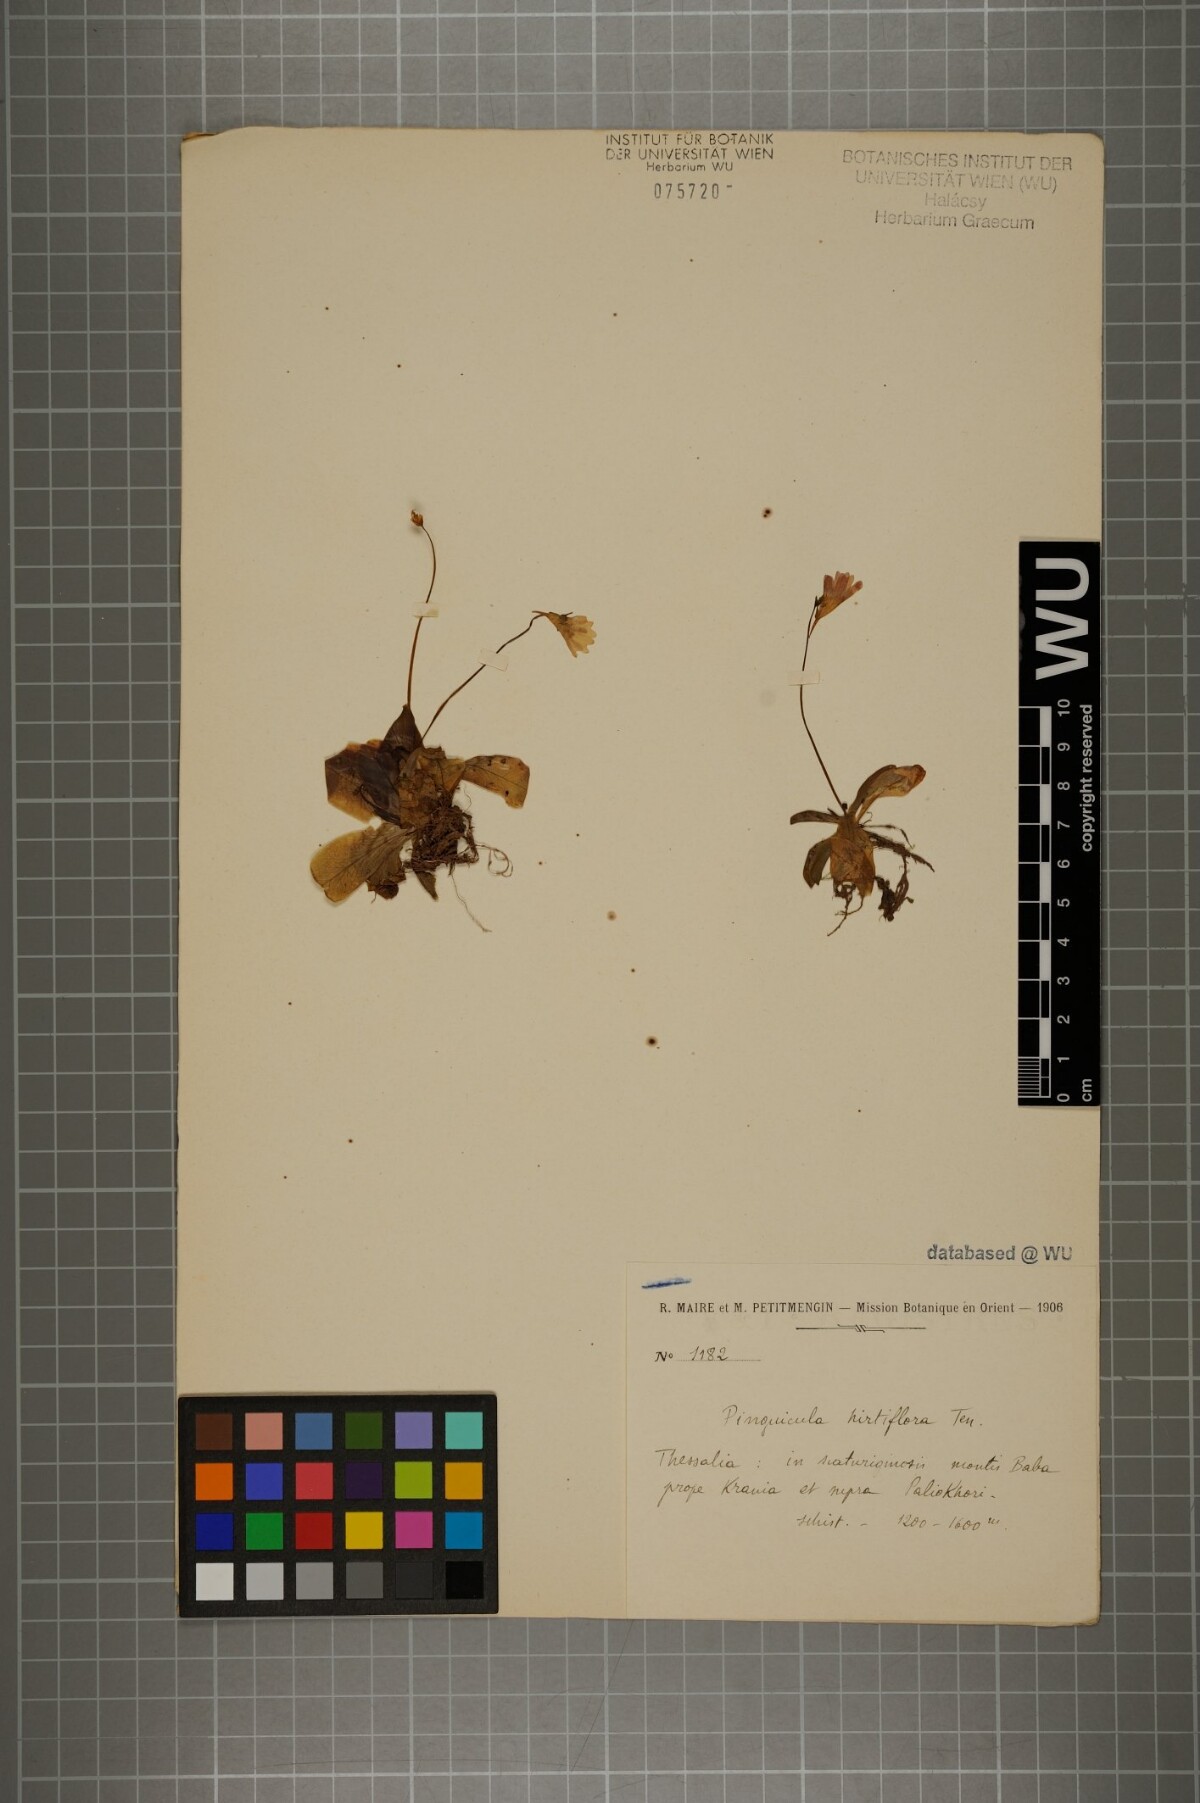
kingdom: Plantae
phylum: Tracheophyta
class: Magnoliopsida
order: Lamiales
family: Lentibulariaceae
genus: Pinguicula
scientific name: Pinguicula crystallina
